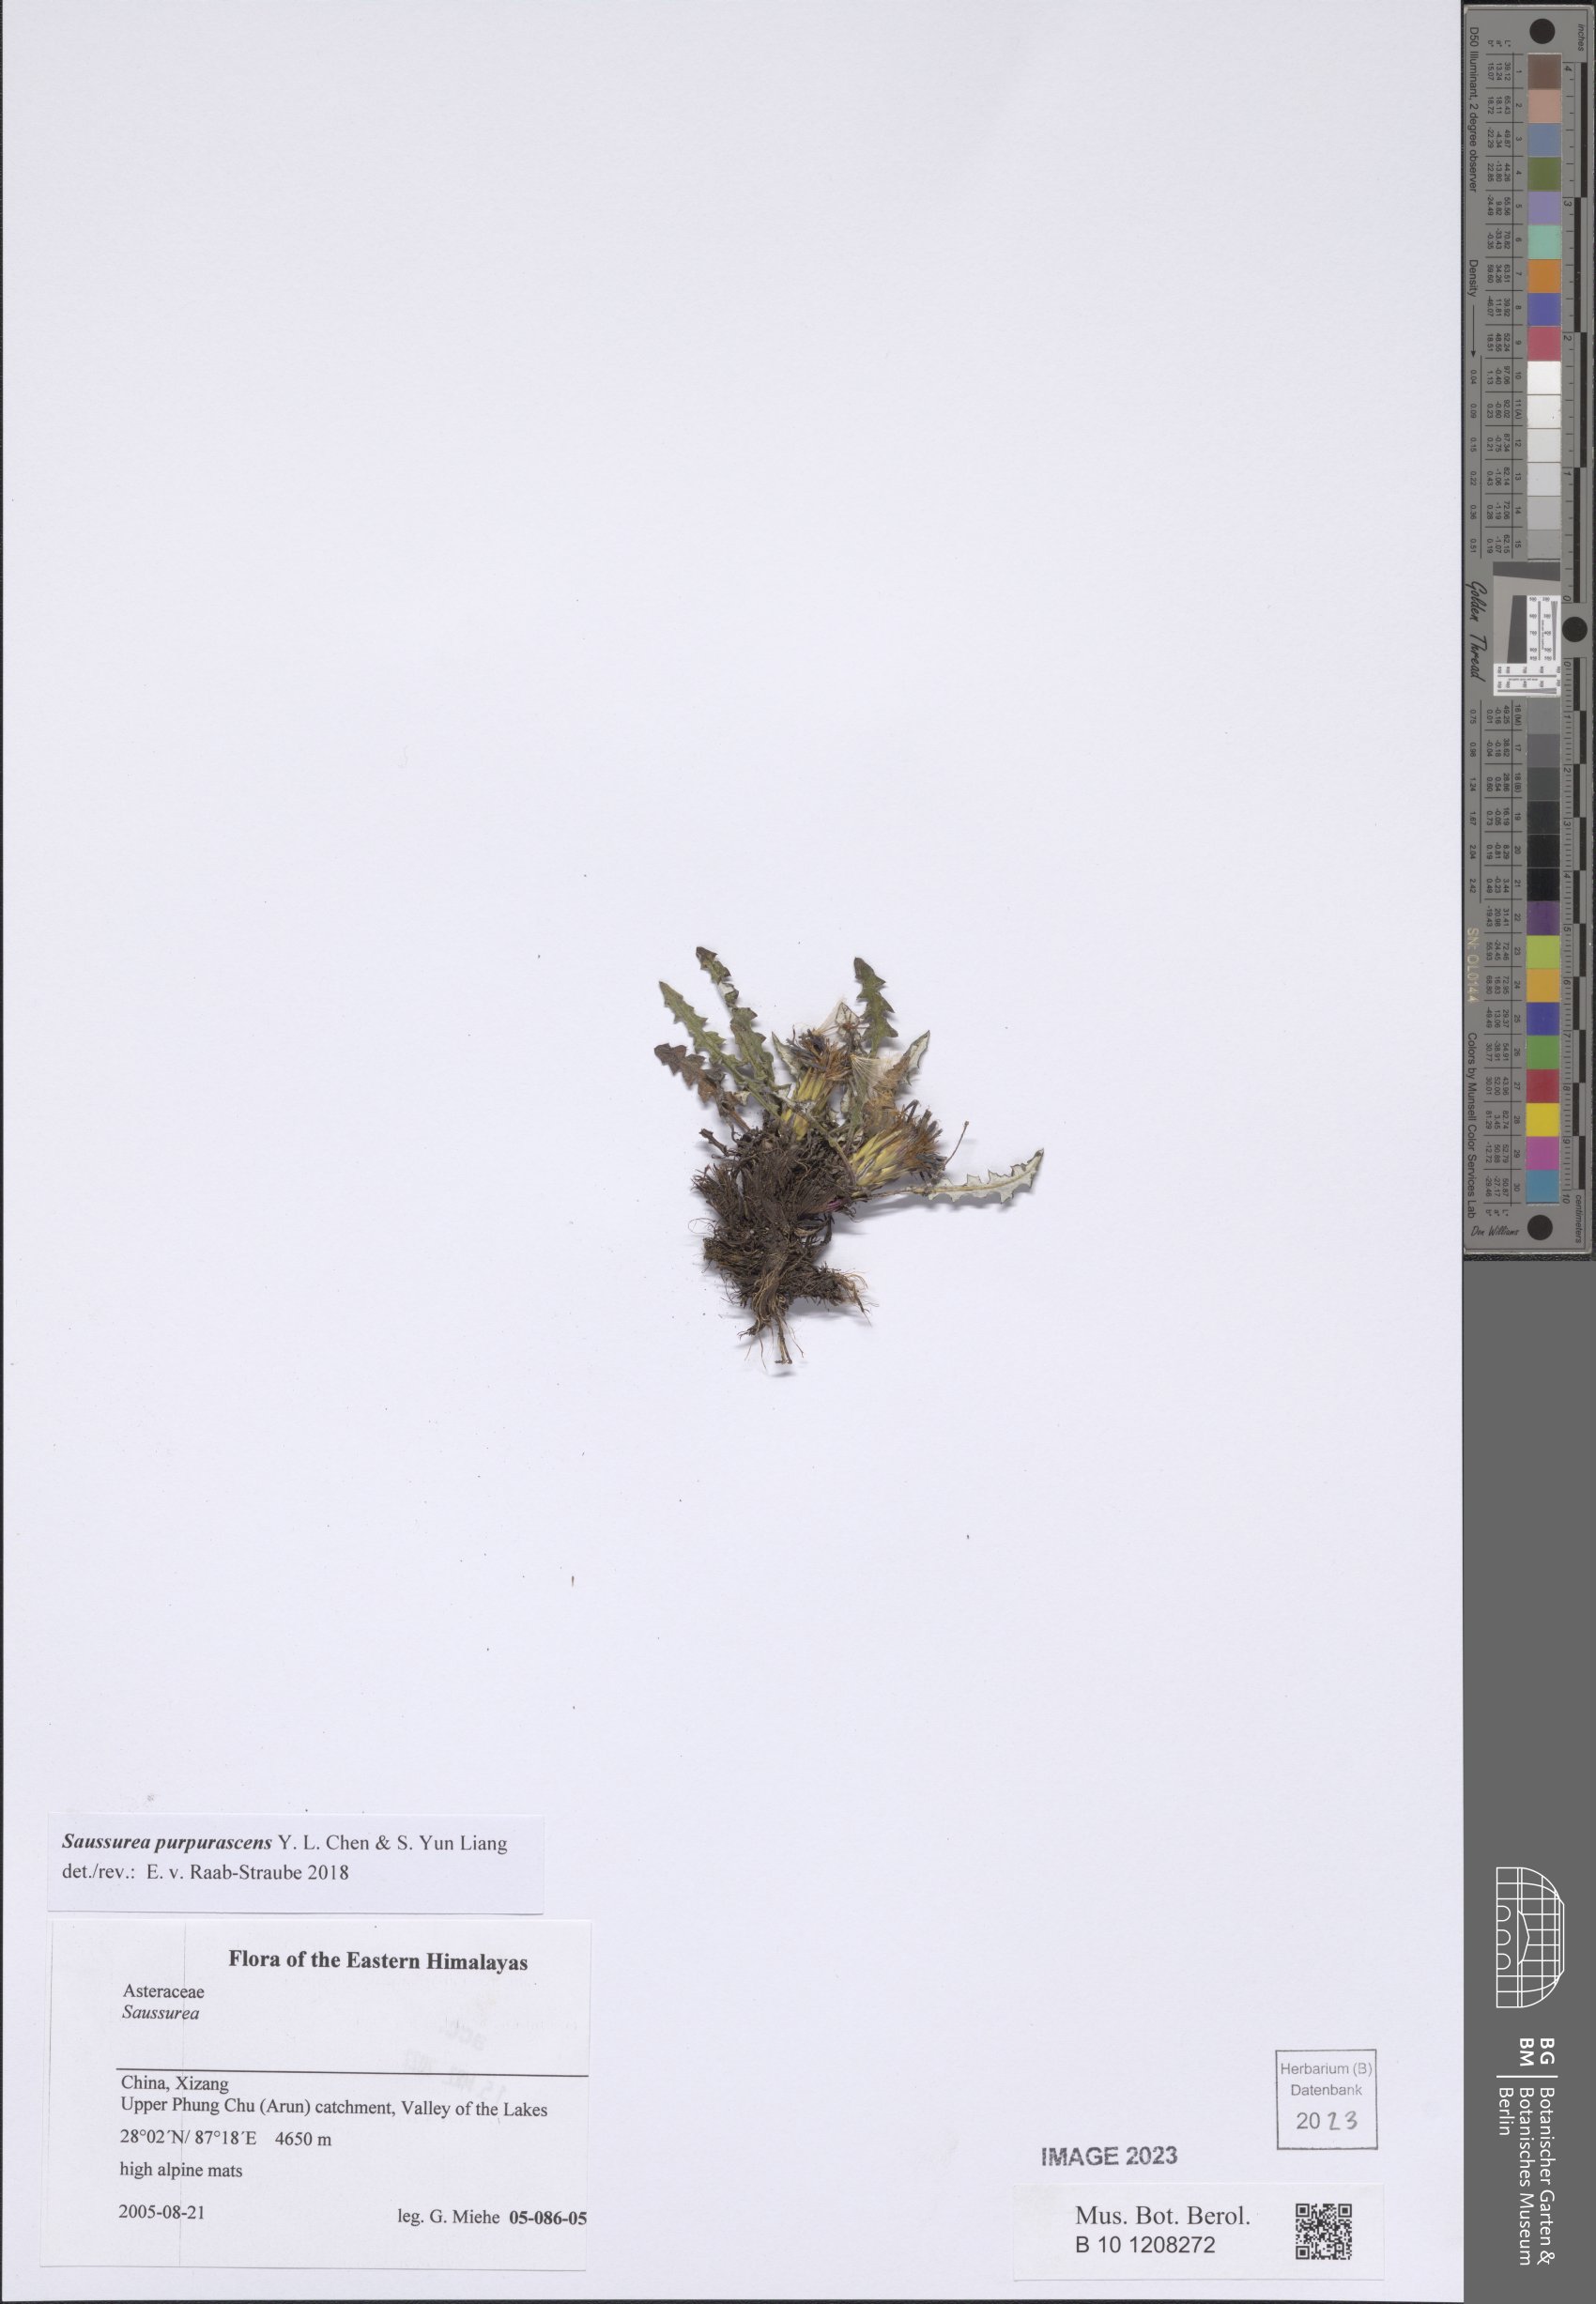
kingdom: Plantae
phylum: Tracheophyta
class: Magnoliopsida
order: Asterales
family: Asteraceae
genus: Saussurea
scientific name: Saussurea purpurascens
